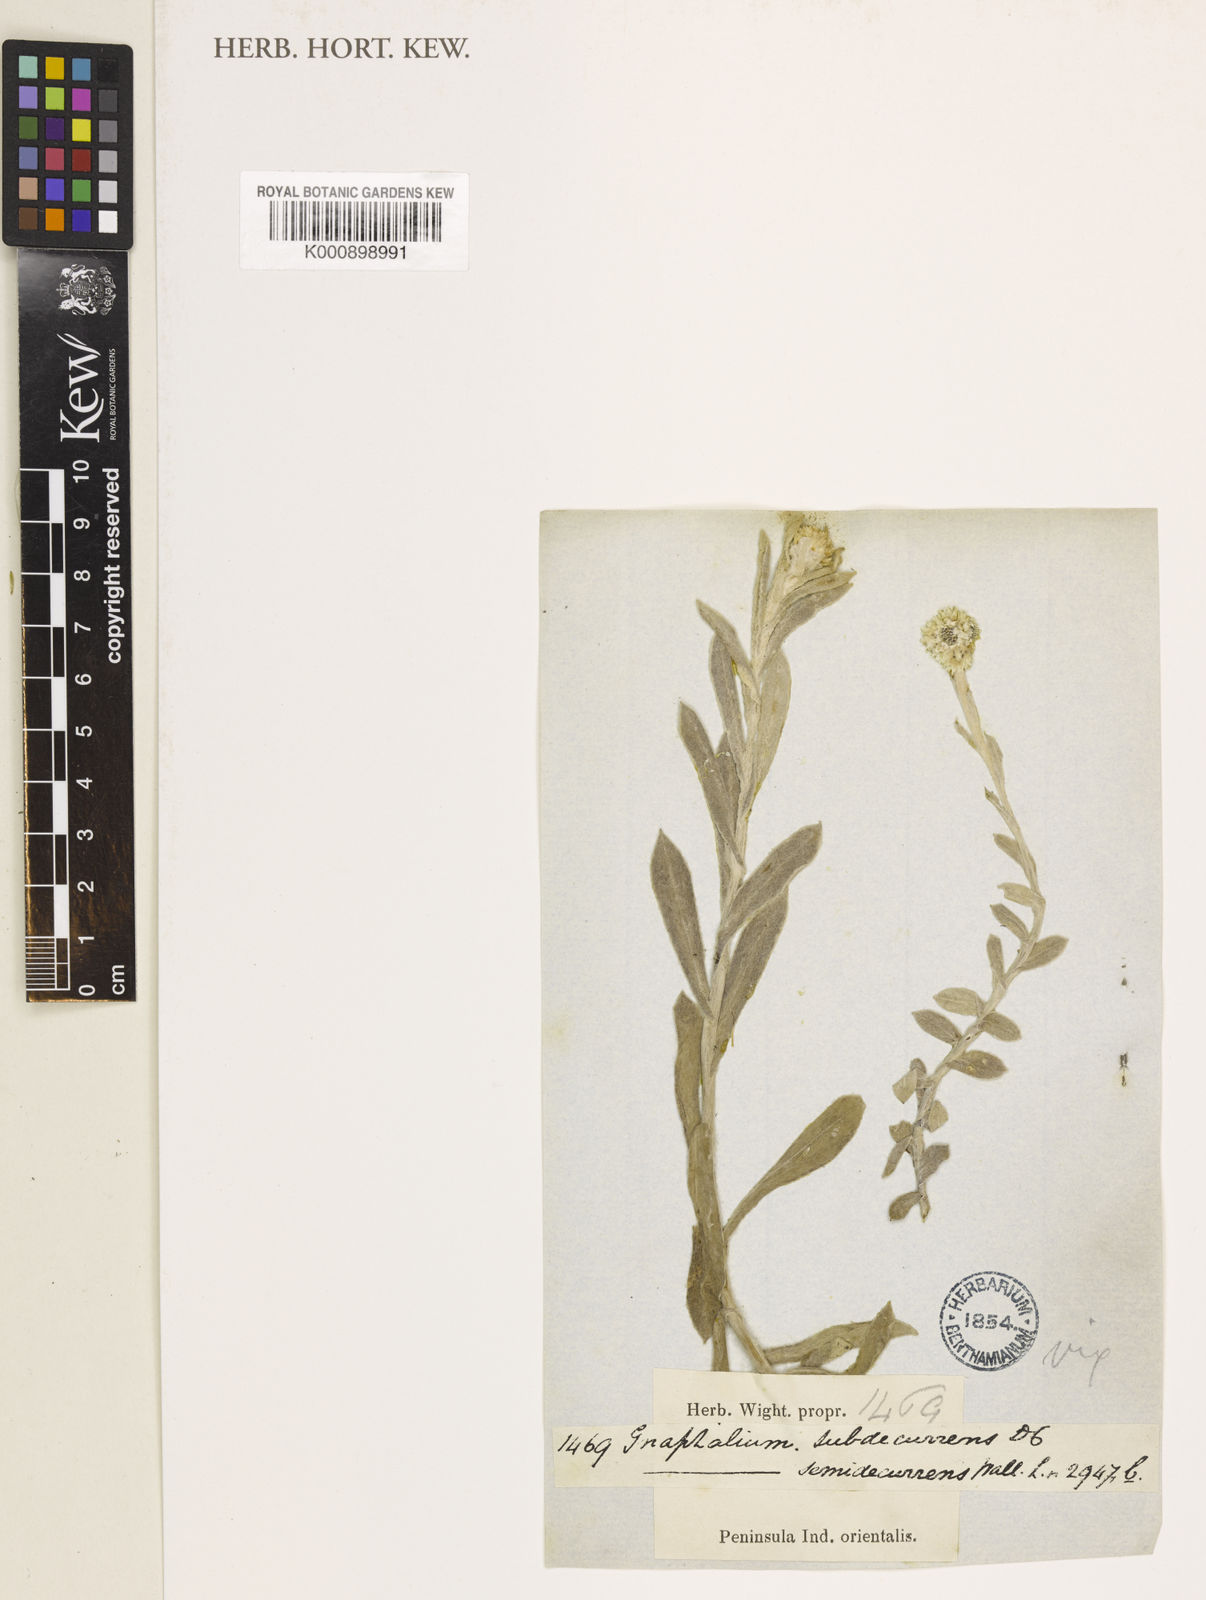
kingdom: Plantae
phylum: Tracheophyta
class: Magnoliopsida
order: Asterales
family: Asteraceae
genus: Anaphalis
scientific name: Anaphalis subdecurrens
